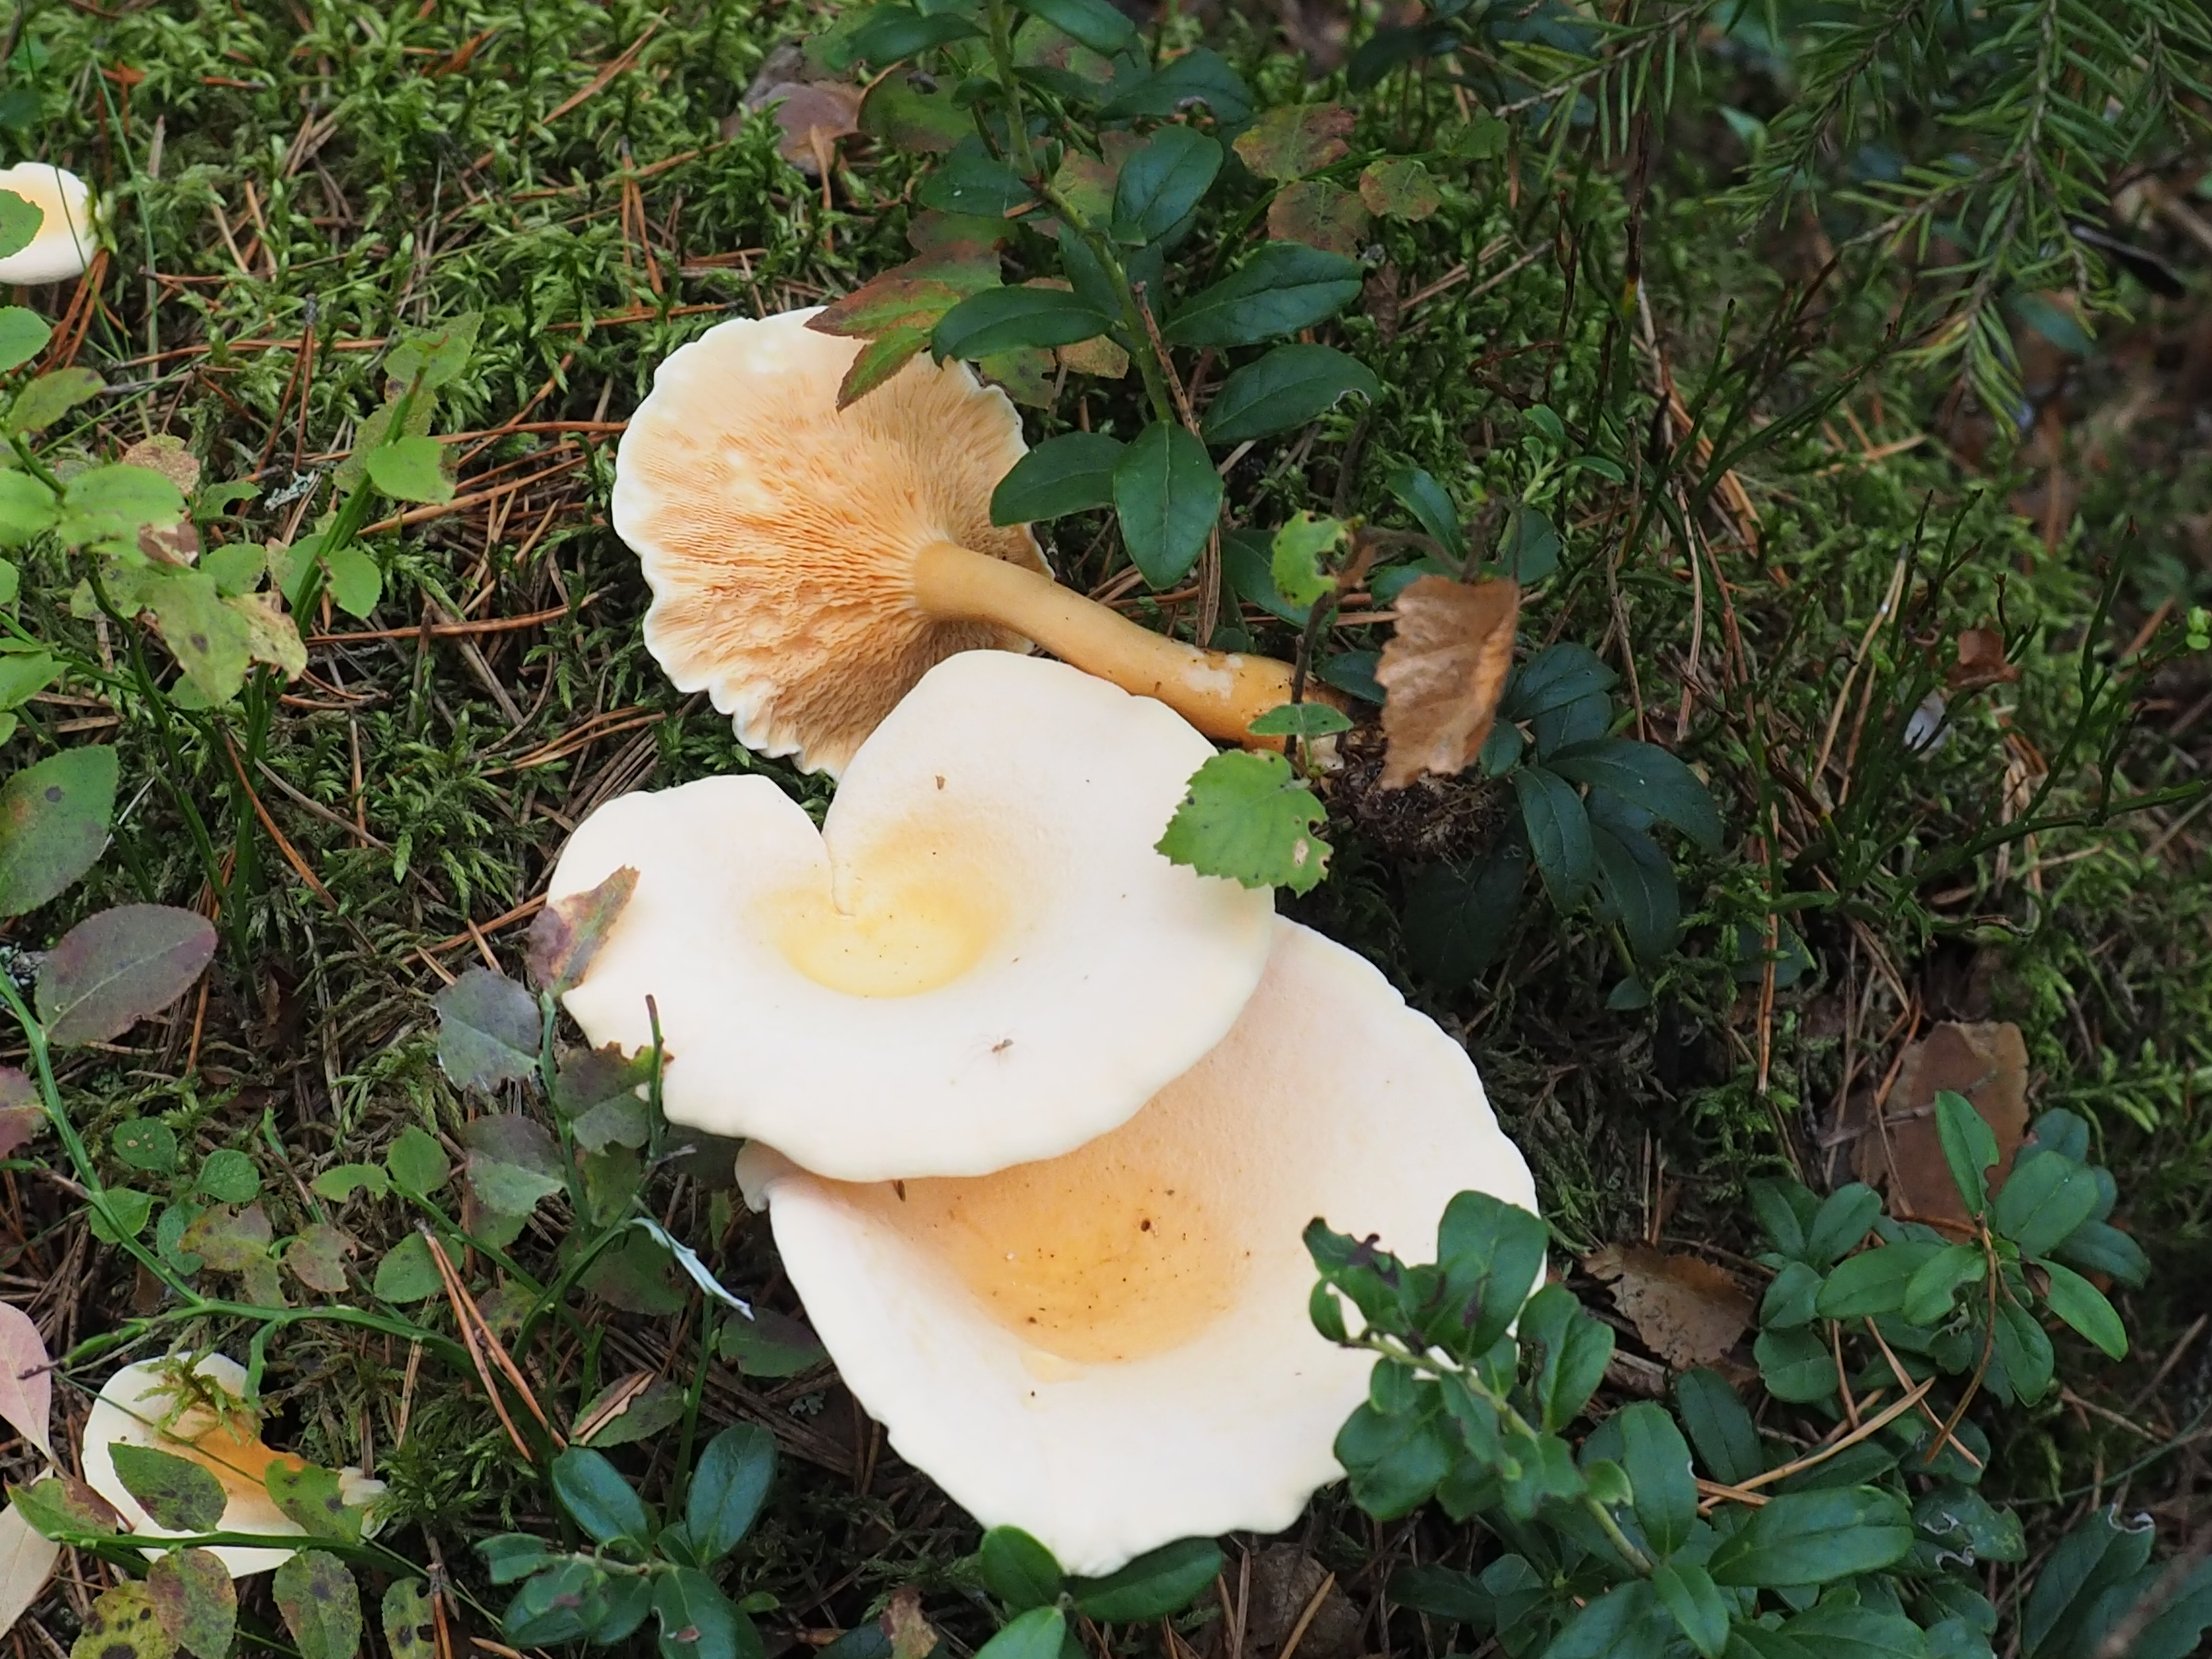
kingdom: Fungi
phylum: Basidiomycota
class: Agaricomycetes
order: Boletales
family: Hygrophoropsidaceae
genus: Hygrophoropsis
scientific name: Hygrophoropsis aurantiaca
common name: False chanterelle
